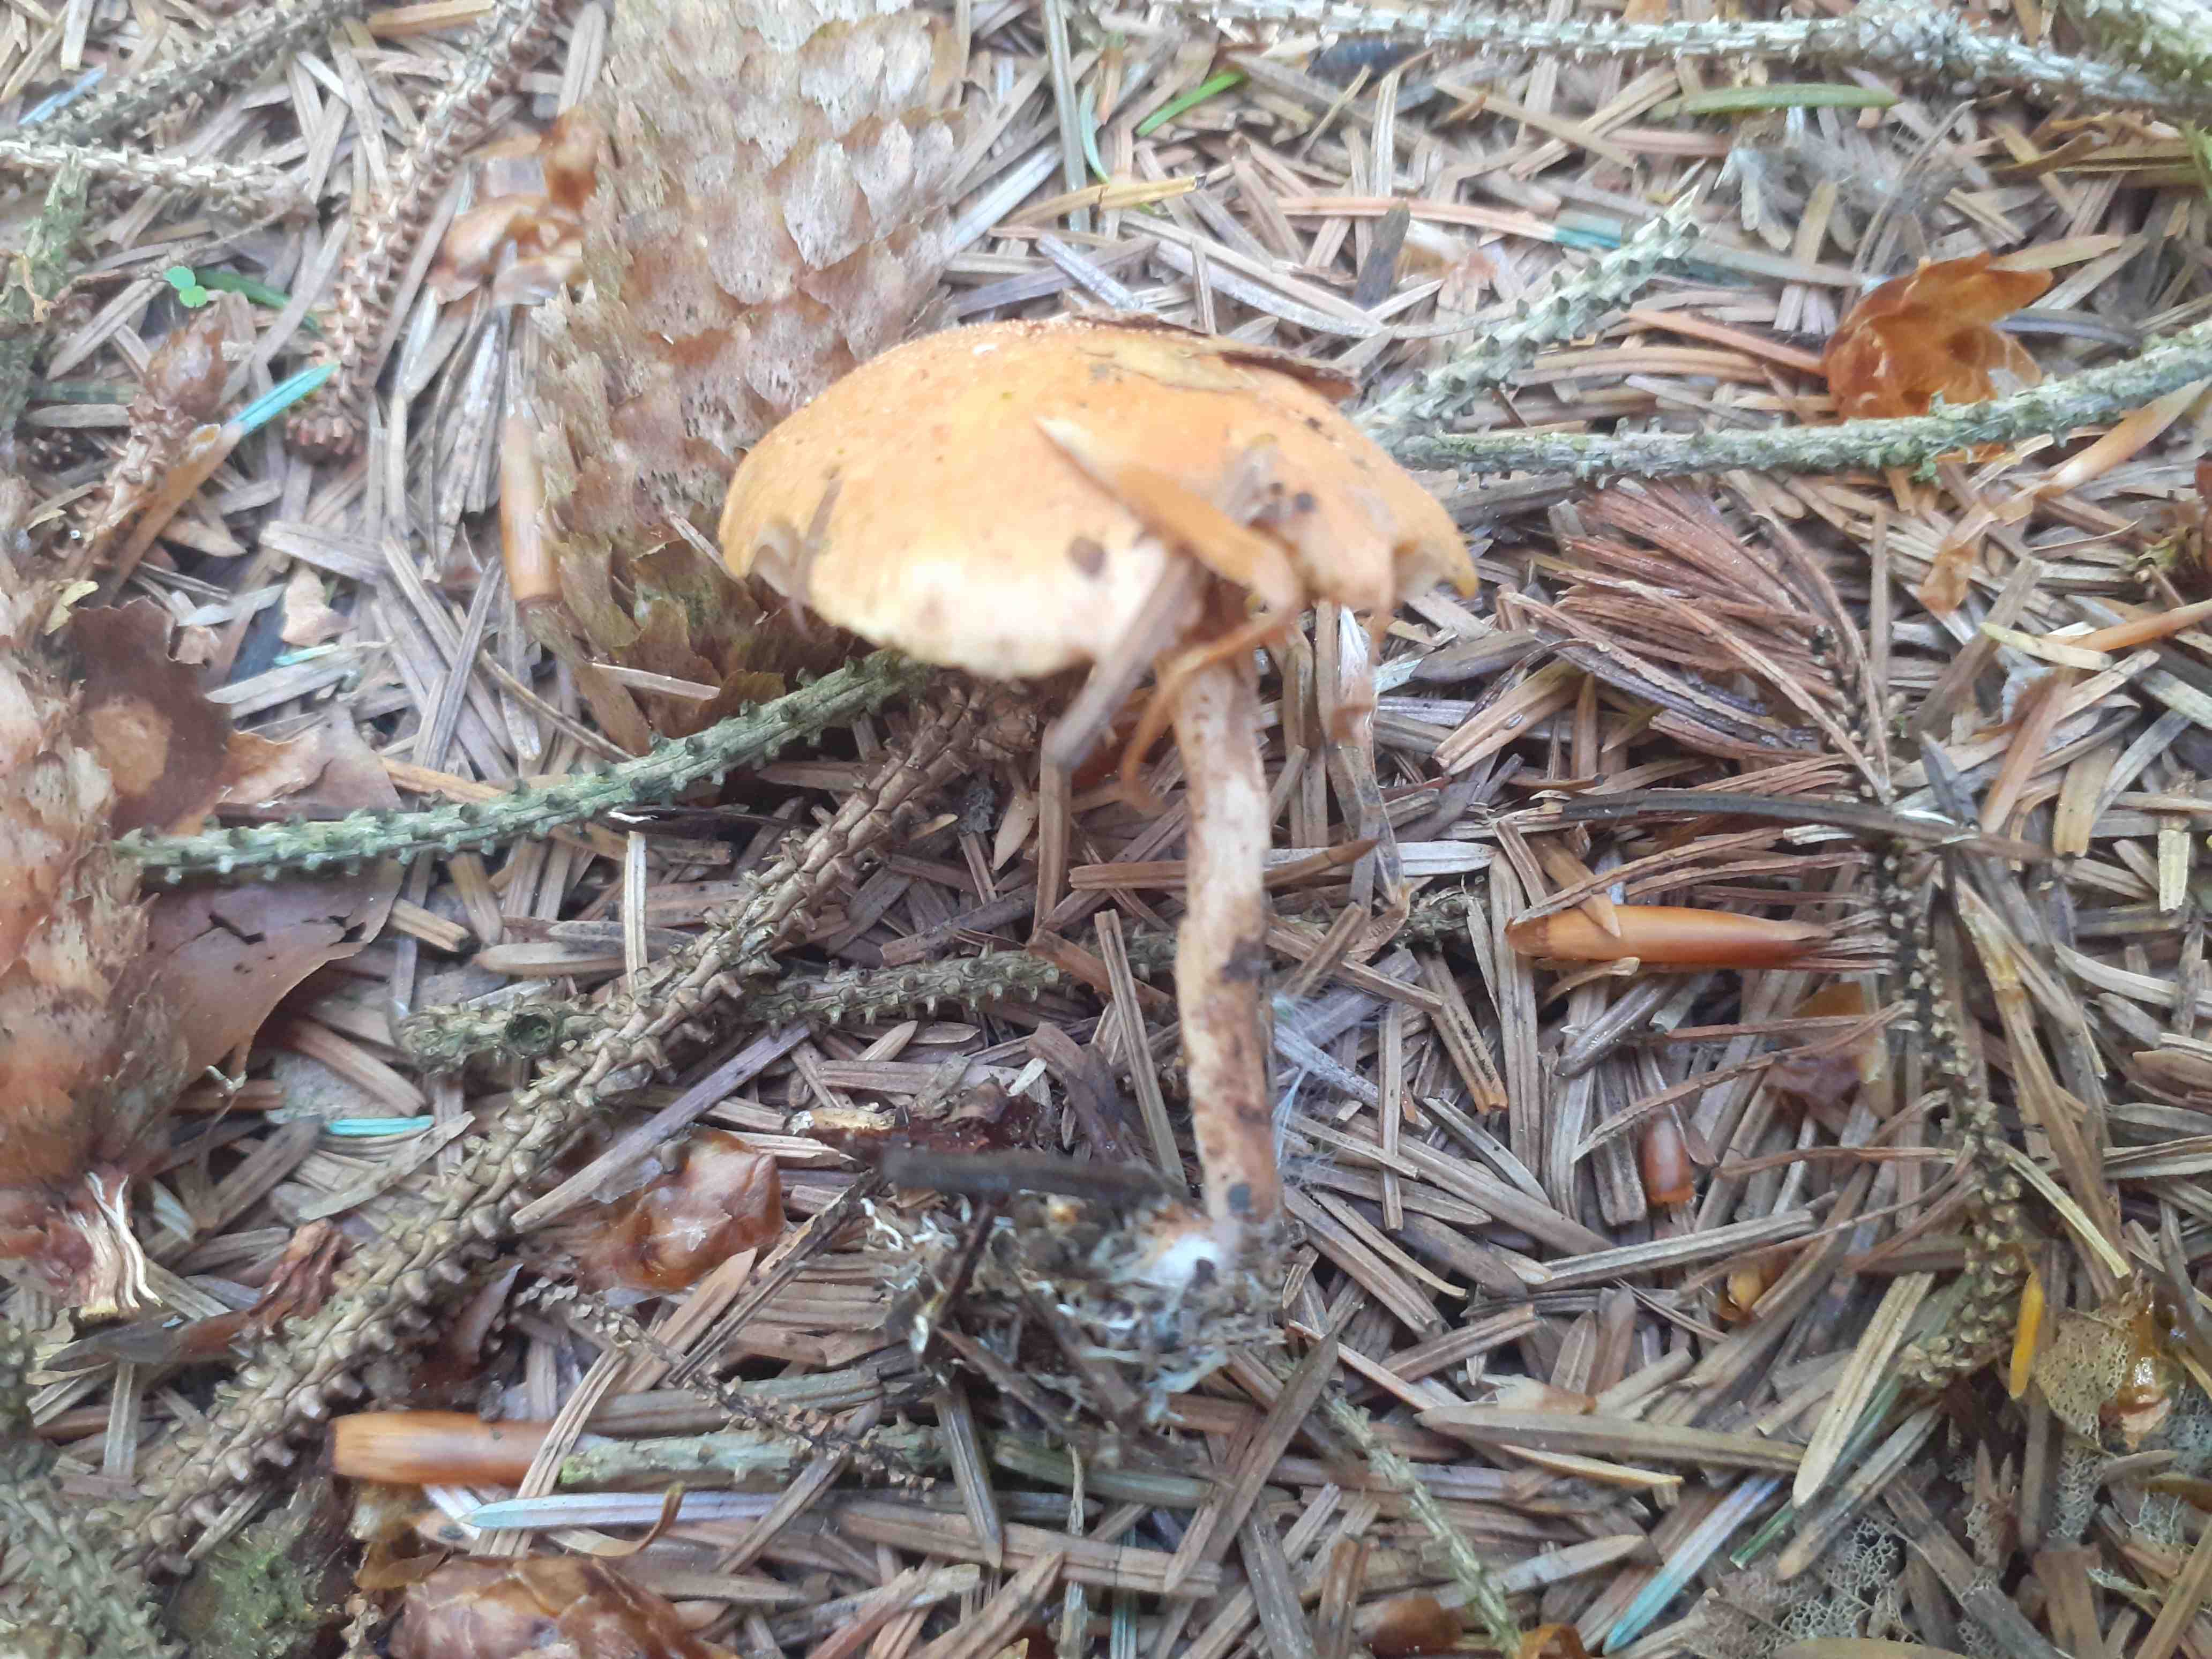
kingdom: Fungi
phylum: Basidiomycota
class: Agaricomycetes
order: Agaricales
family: Strophariaceae
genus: Pholiota
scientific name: Pholiota carbonaria
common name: kul-skælhat
